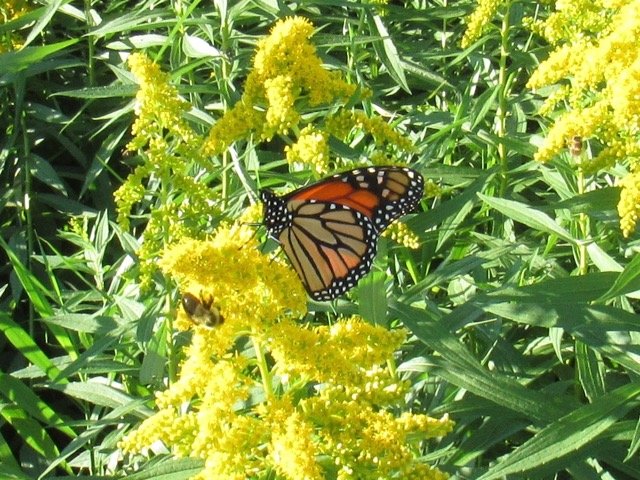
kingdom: Animalia
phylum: Arthropoda
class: Insecta
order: Lepidoptera
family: Nymphalidae
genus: Danaus
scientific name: Danaus plexippus
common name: Monarch
